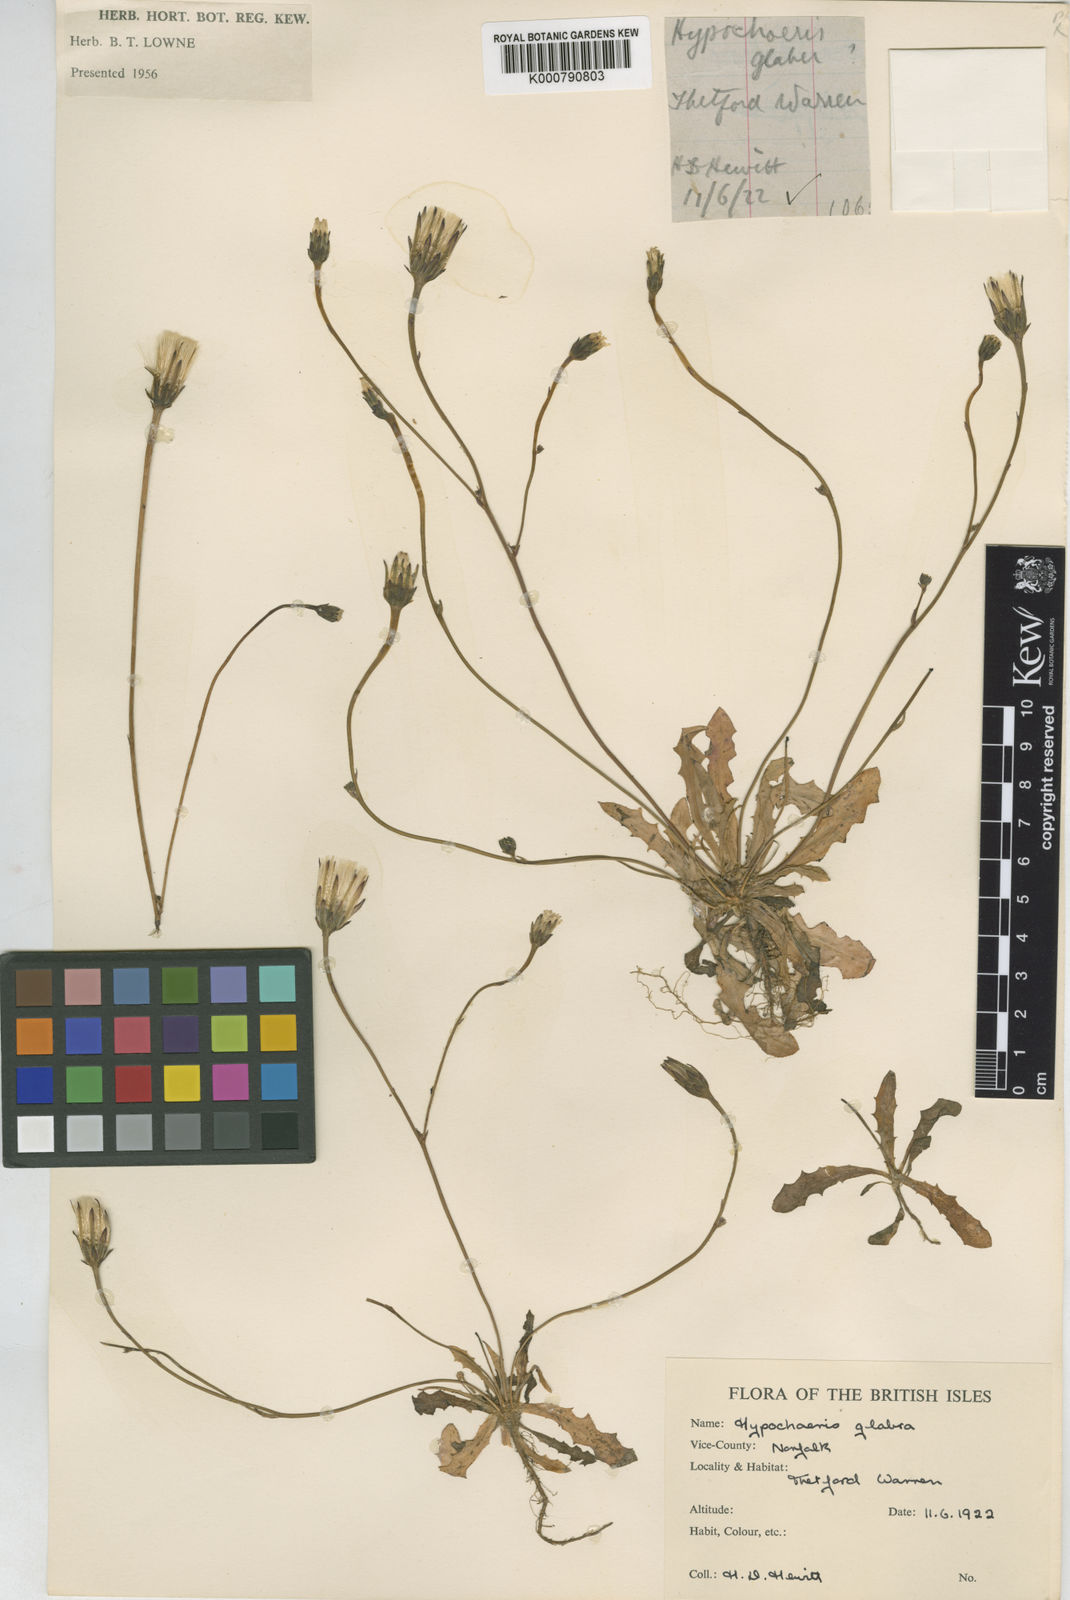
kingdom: Plantae
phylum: Tracheophyta
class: Magnoliopsida
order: Asterales
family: Asteraceae
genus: Hypochaeris
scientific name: Hypochaeris glabra
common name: Smooth catsear
